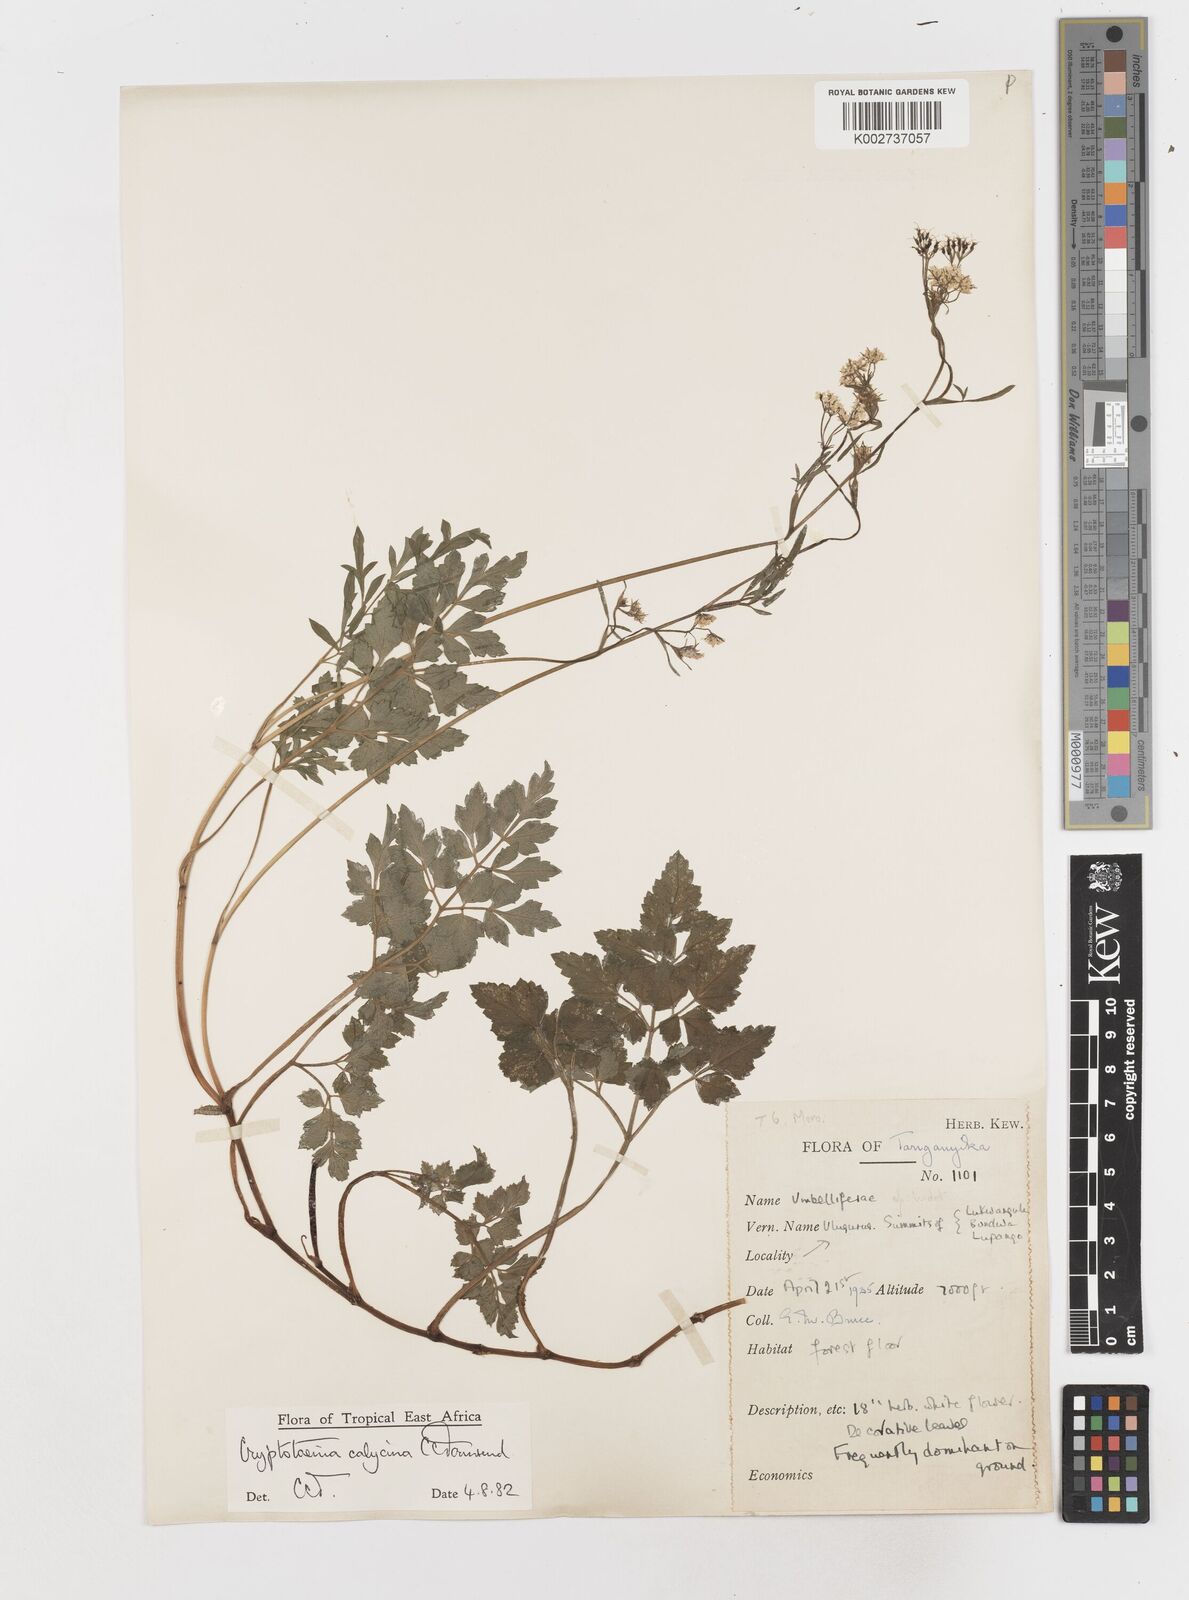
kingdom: Plantae
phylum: Tracheophyta
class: Magnoliopsida
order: Apiales
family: Apiaceae
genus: Cryptotaenia
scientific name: Cryptotaenia calycina
